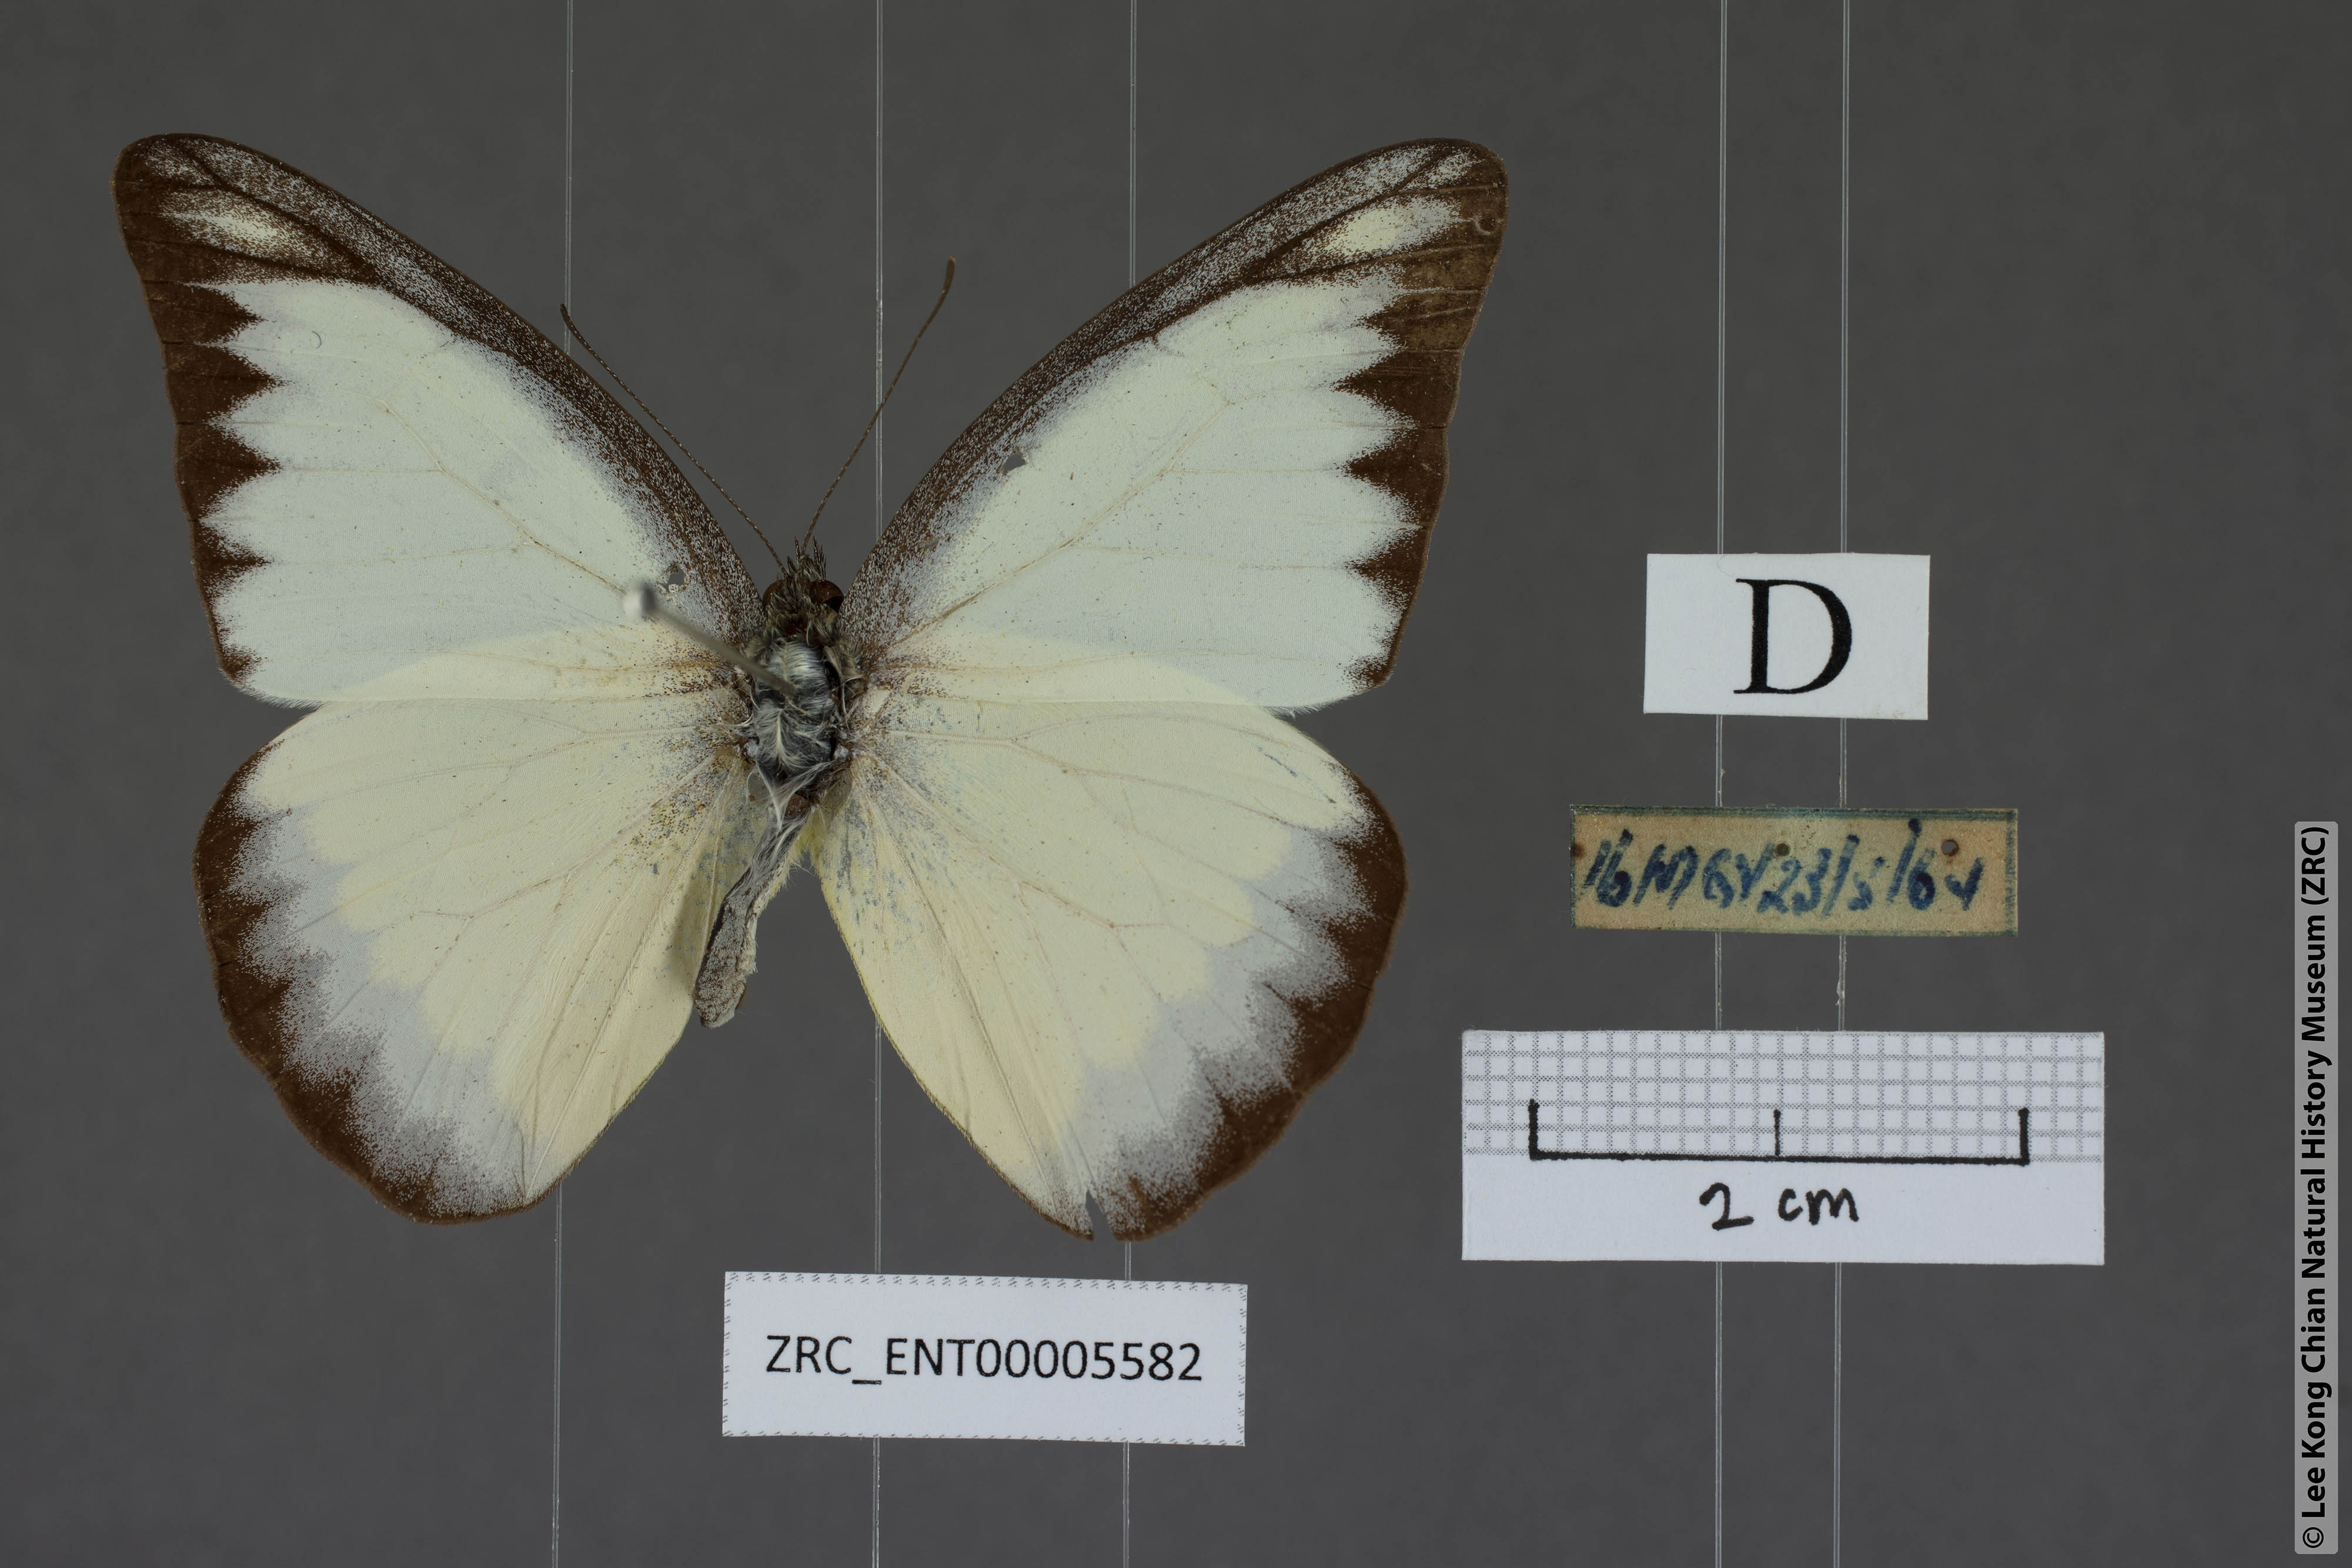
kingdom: Animalia
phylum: Arthropoda
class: Insecta
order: Lepidoptera
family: Pieridae
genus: Appias
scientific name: Appias lyncida
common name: Chocolate albatross
